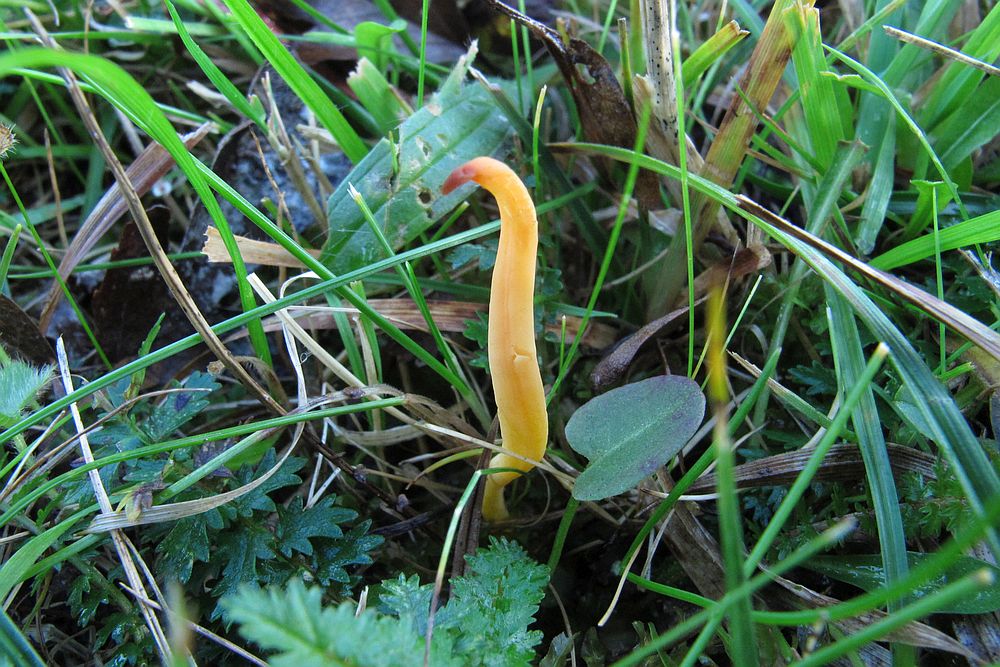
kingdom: Fungi
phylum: Basidiomycota
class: Agaricomycetes
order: Agaricales
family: Clavariaceae
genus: Clavulinopsis
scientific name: Clavulinopsis helvola
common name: orangegul køllesvamp
